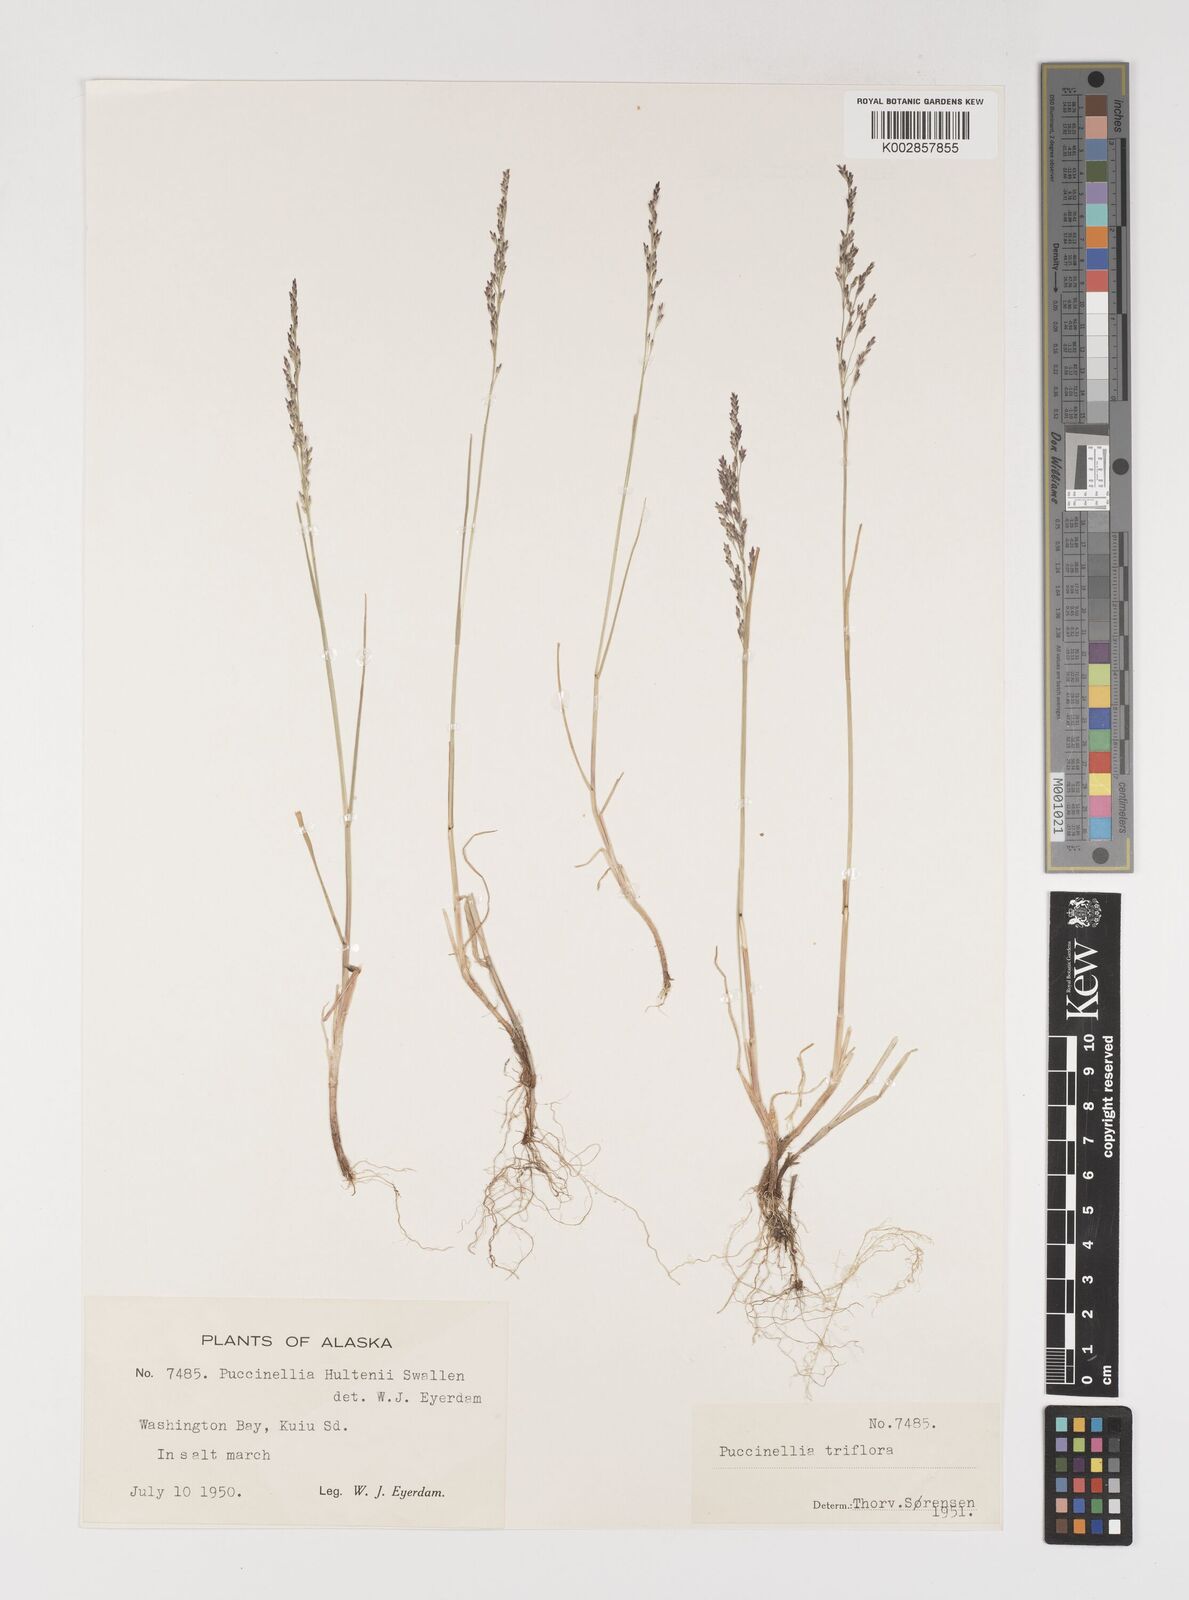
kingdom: Plantae
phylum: Tracheophyta
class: Liliopsida
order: Poales
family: Poaceae
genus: Puccinellia
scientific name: Puccinellia andersonii
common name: Anderson's alkali grass
